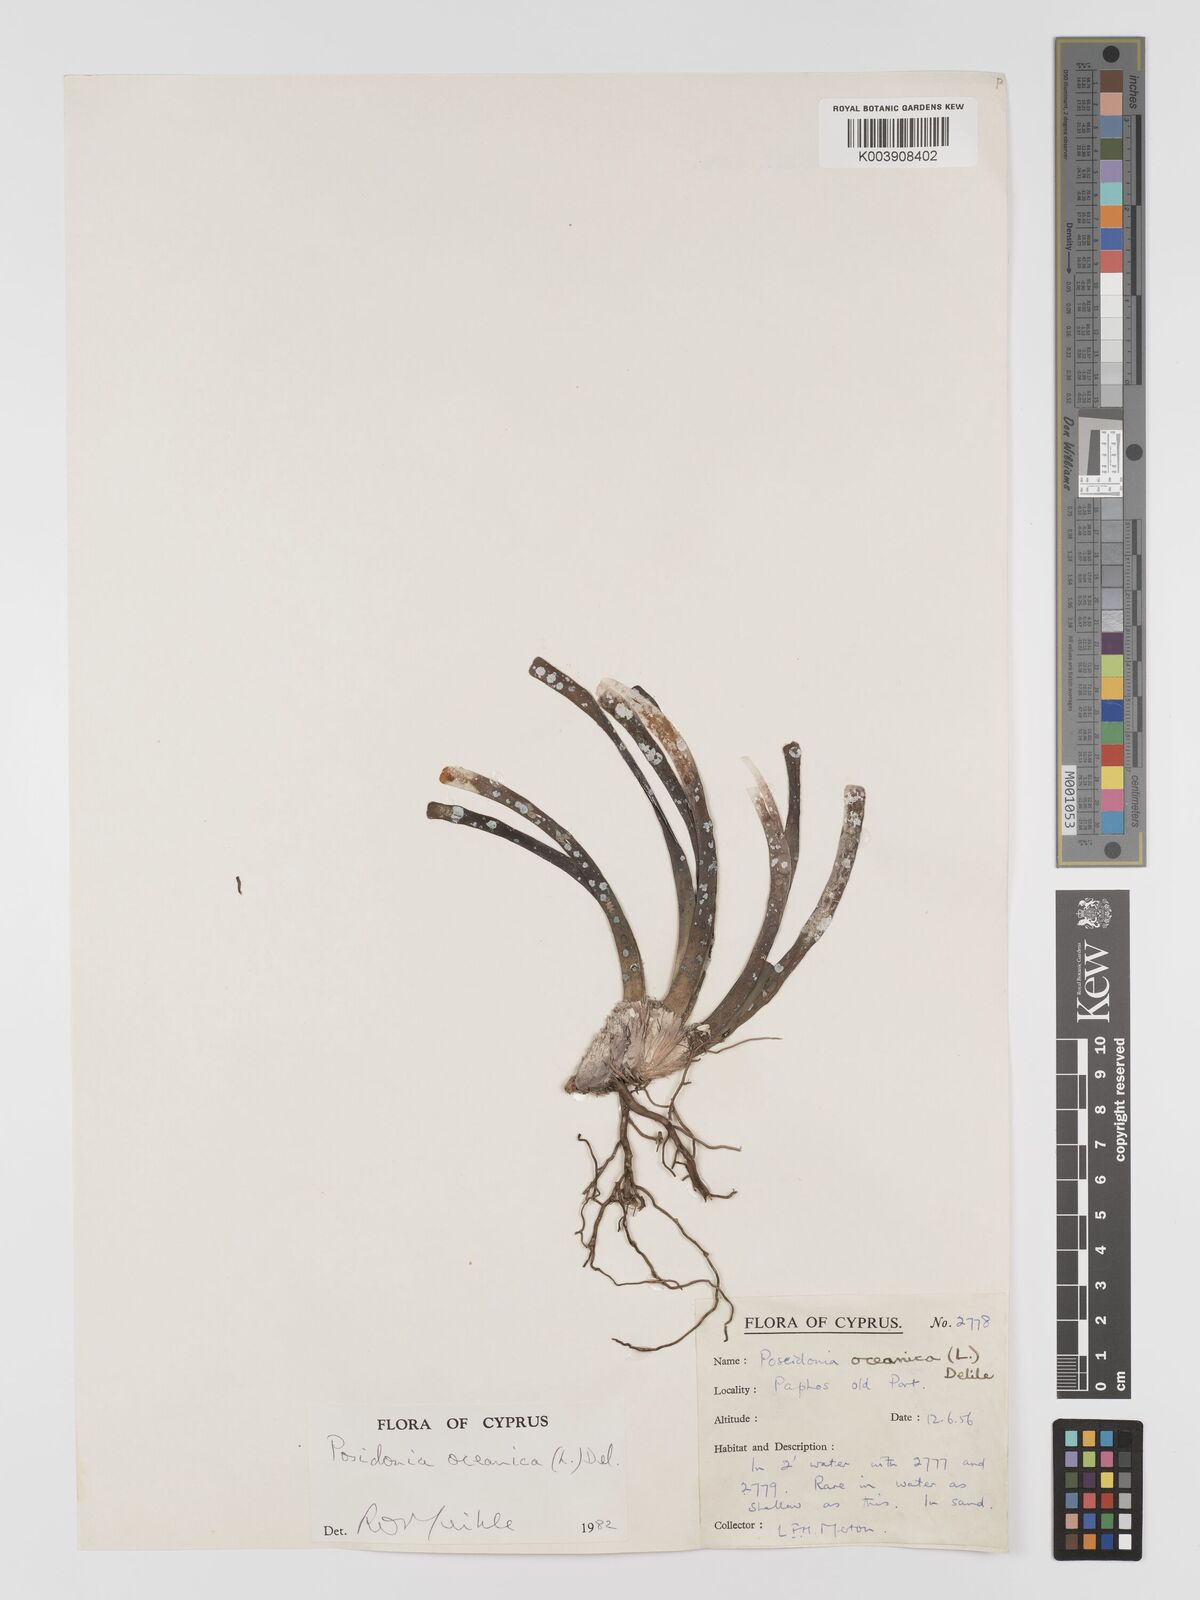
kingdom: Plantae
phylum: Tracheophyta
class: Liliopsida
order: Alismatales
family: Posidoniaceae
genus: Posidonia
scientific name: Posidonia oceanica
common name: Mediterranean tapeweed
